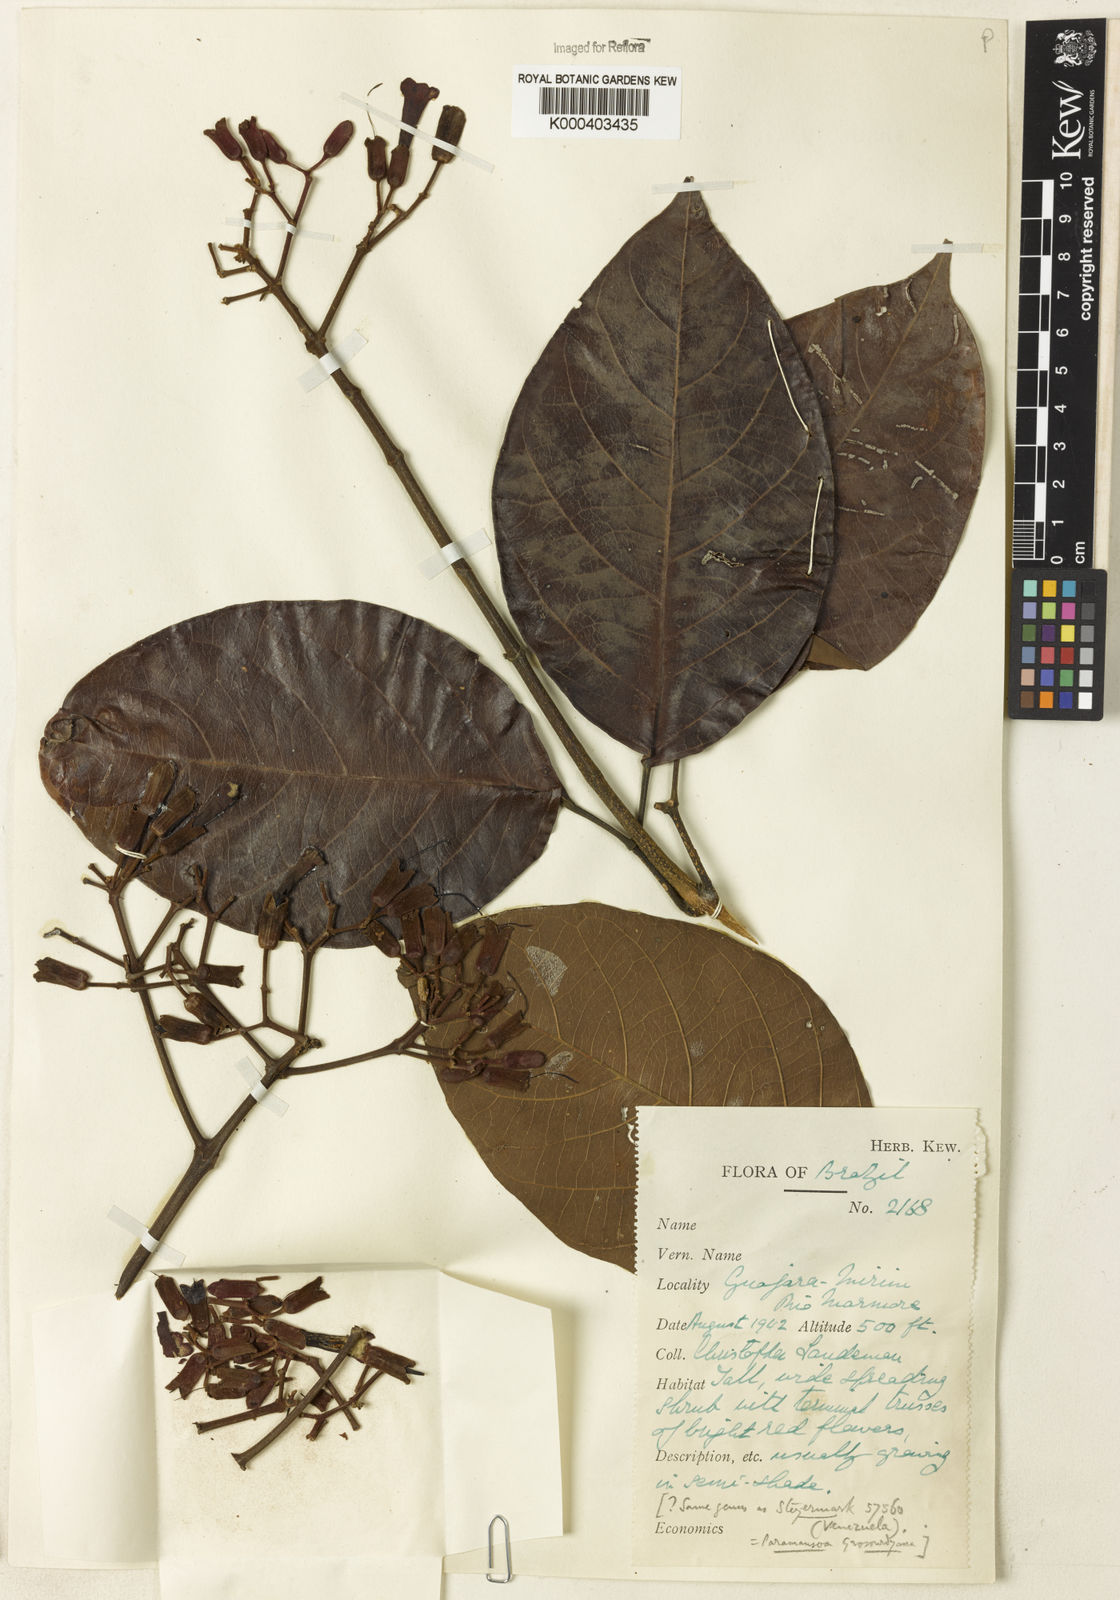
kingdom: Plantae
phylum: Tracheophyta
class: Magnoliopsida
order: Rosales
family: Rhamnaceae
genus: Arrabidaea
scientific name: Arrabidaea
